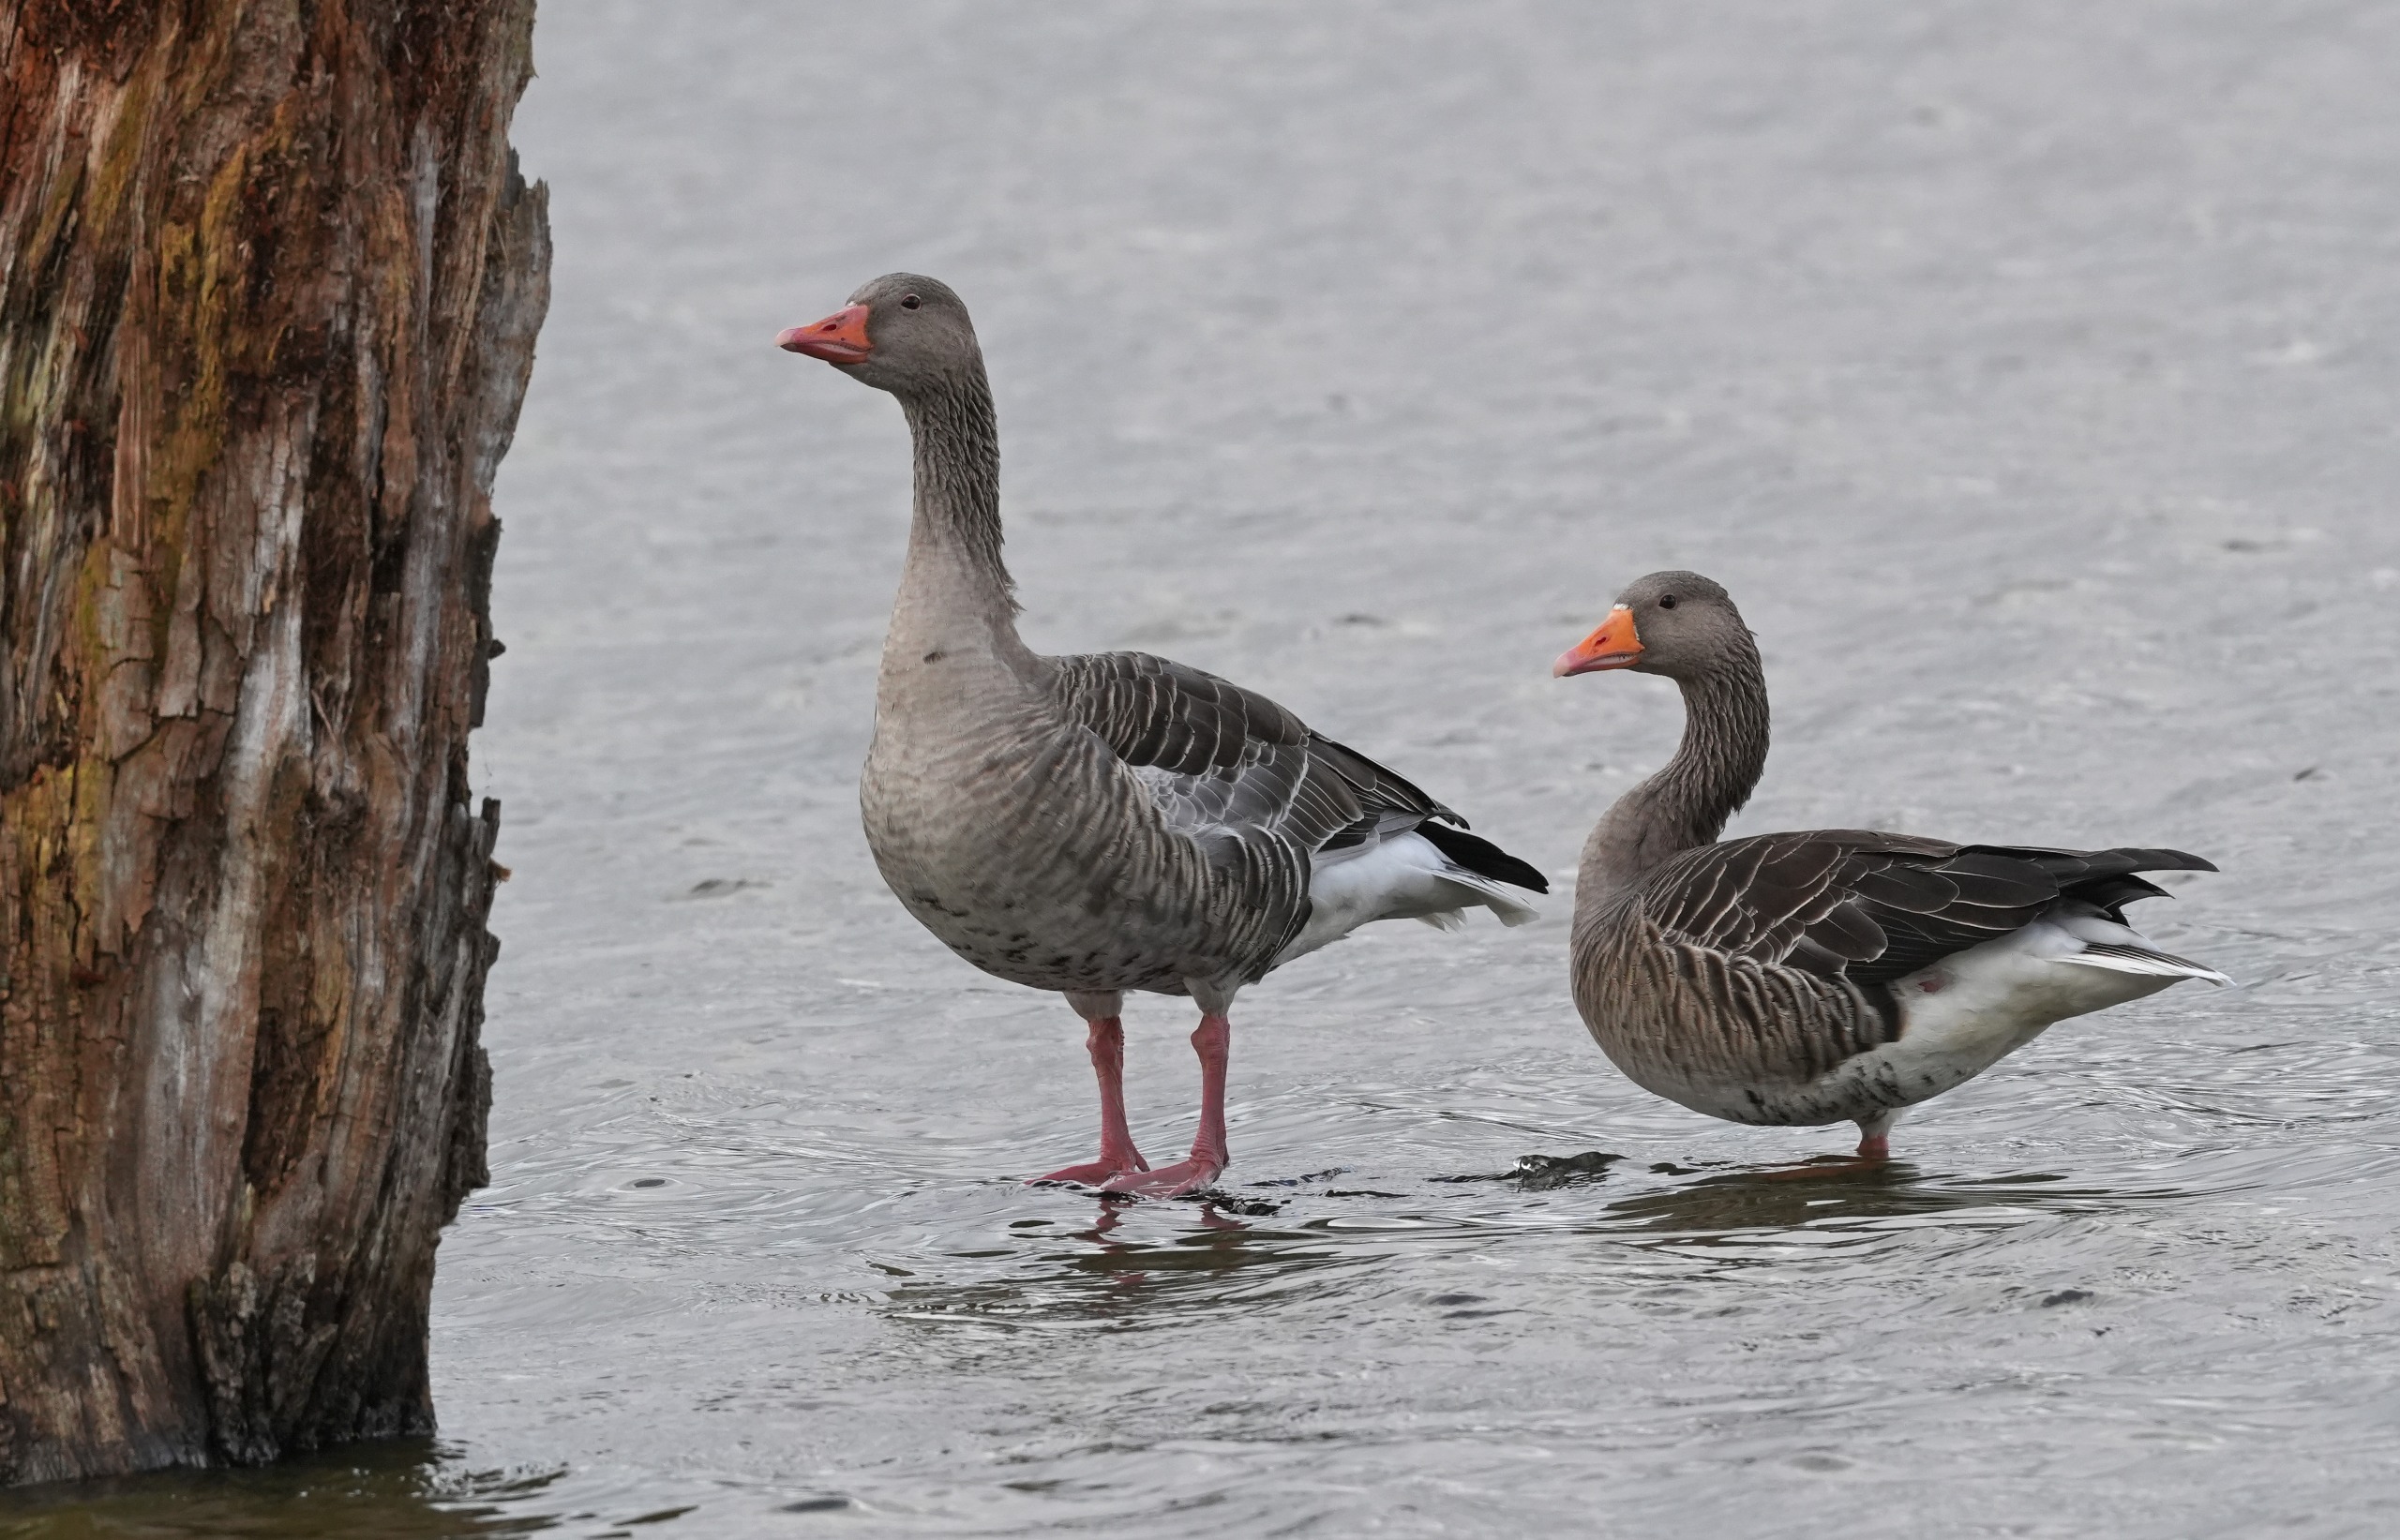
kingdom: Animalia
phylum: Chordata
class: Aves
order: Anseriformes
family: Anatidae
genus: Anser
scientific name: Anser anser
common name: Grågås
